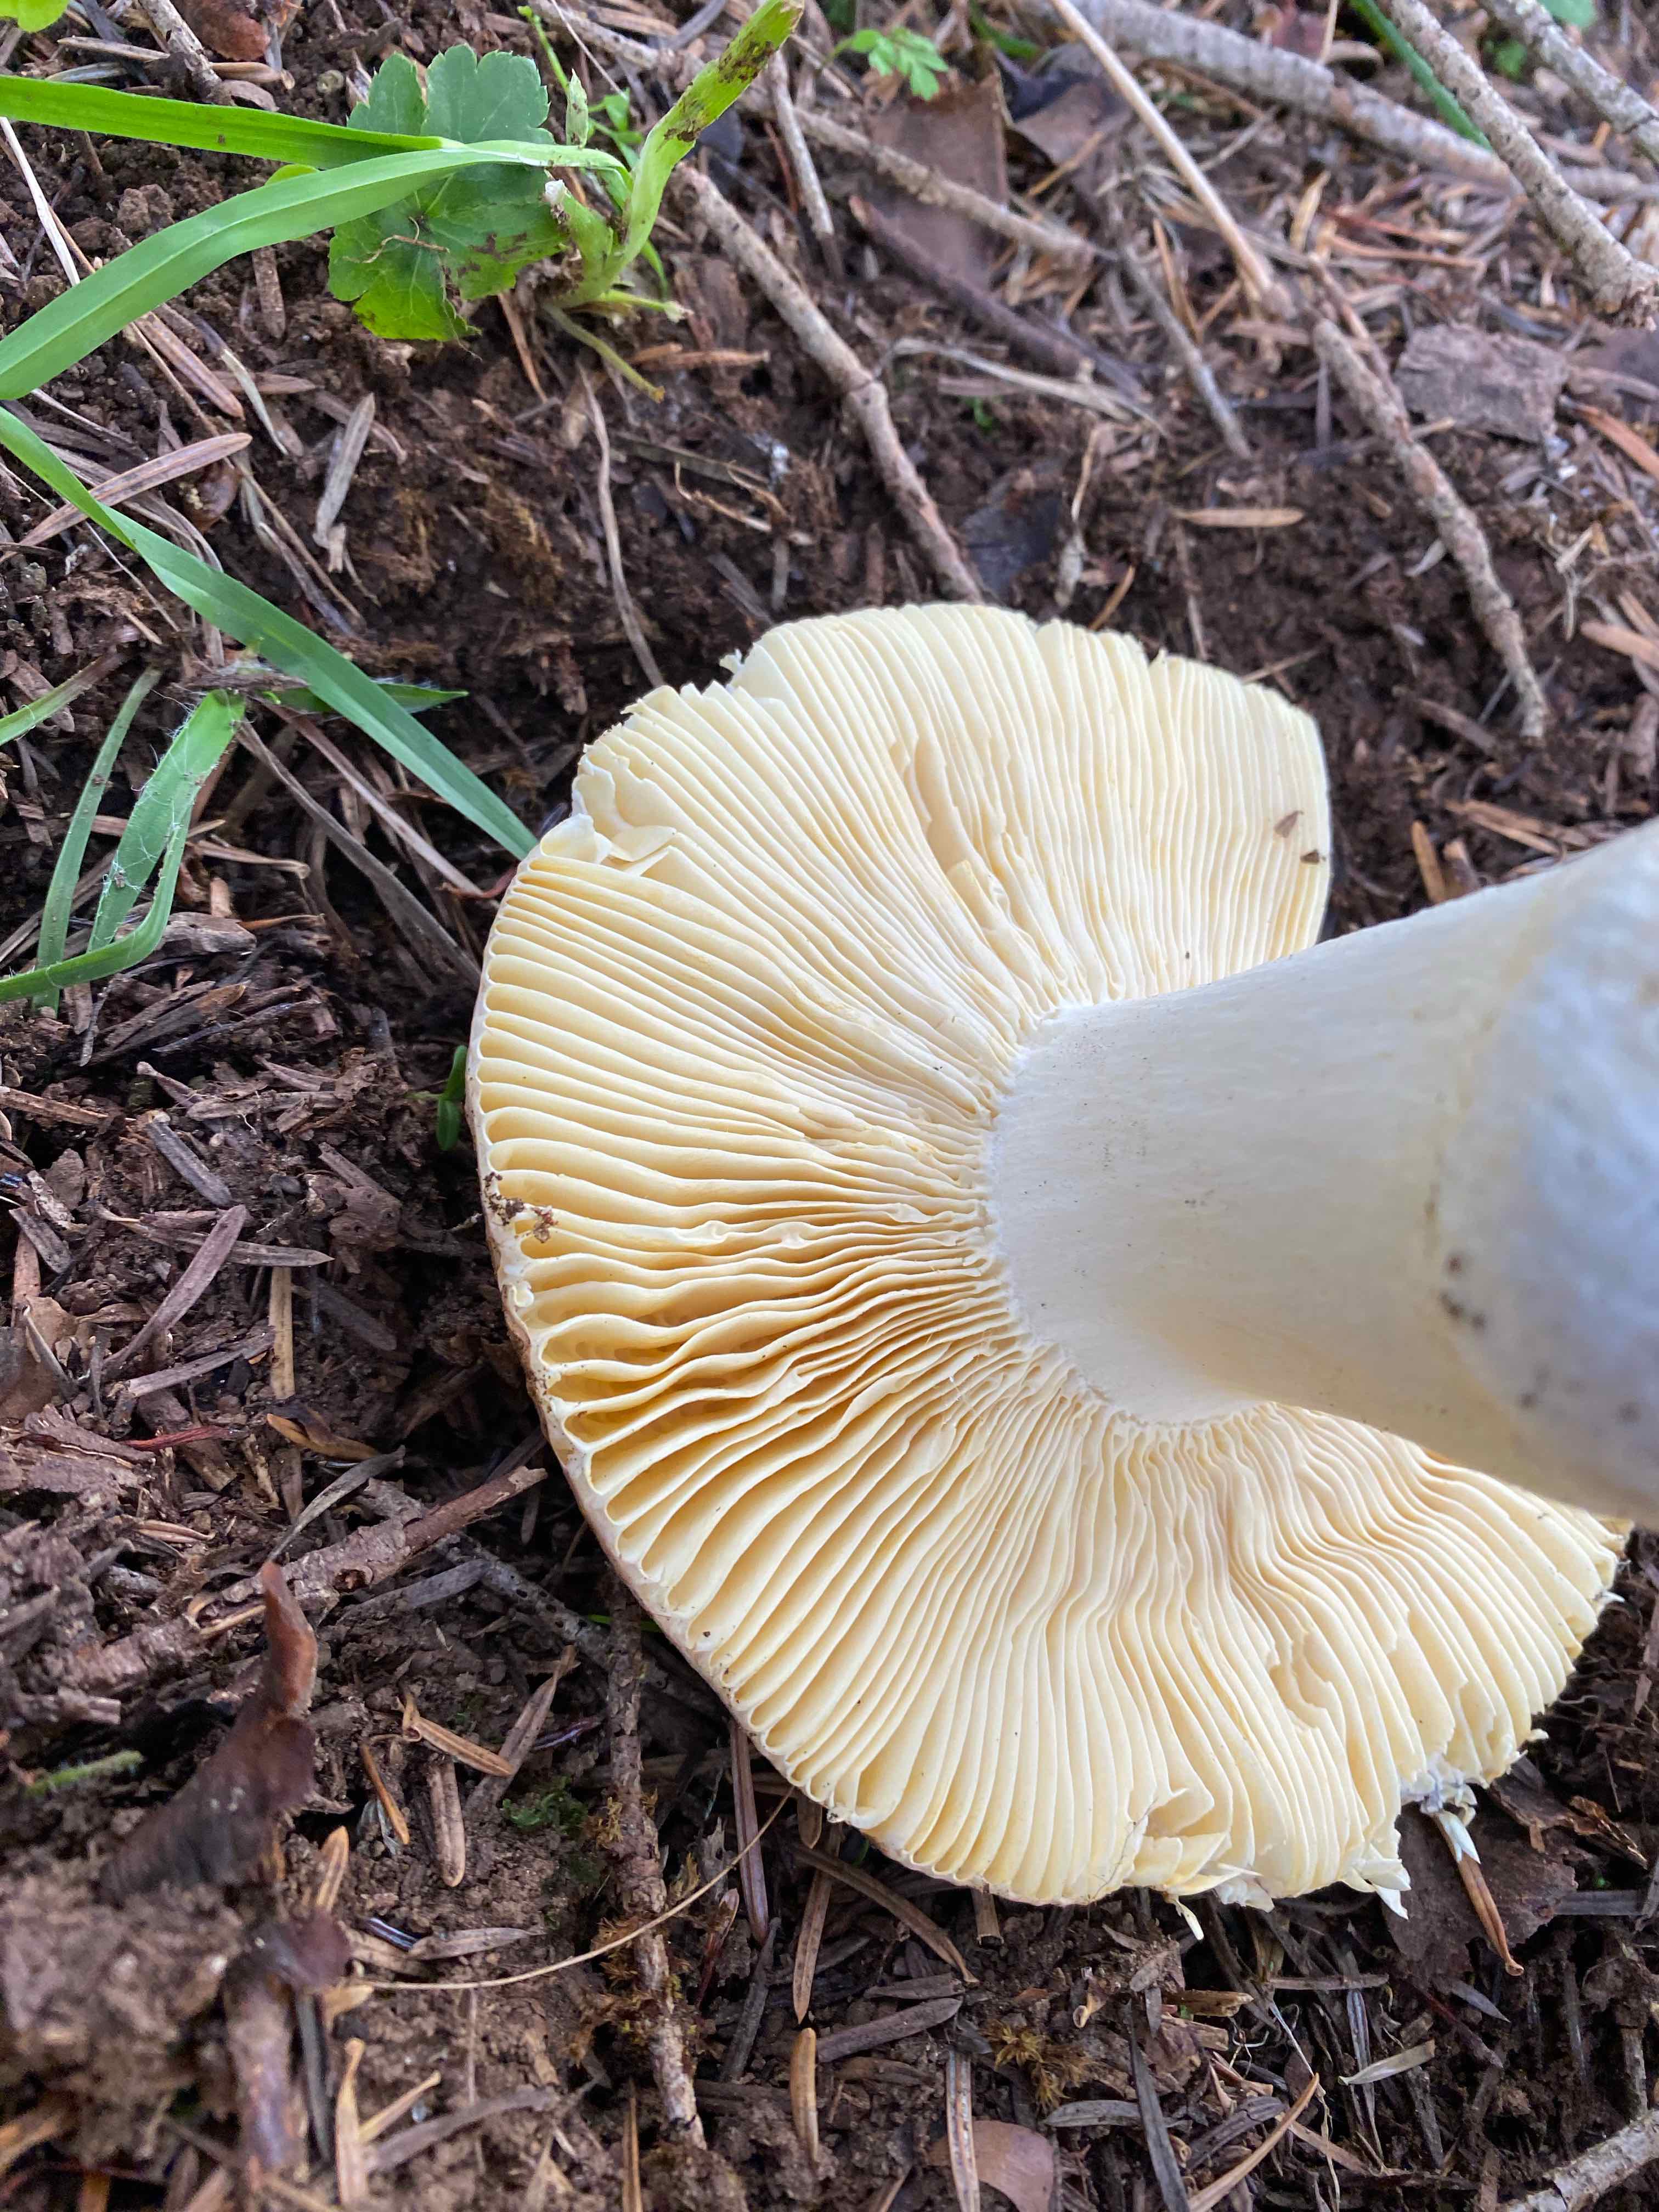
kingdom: Fungi
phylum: Basidiomycota
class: Agaricomycetes
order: Russulales
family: Russulaceae
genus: Russula
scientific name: Russula
